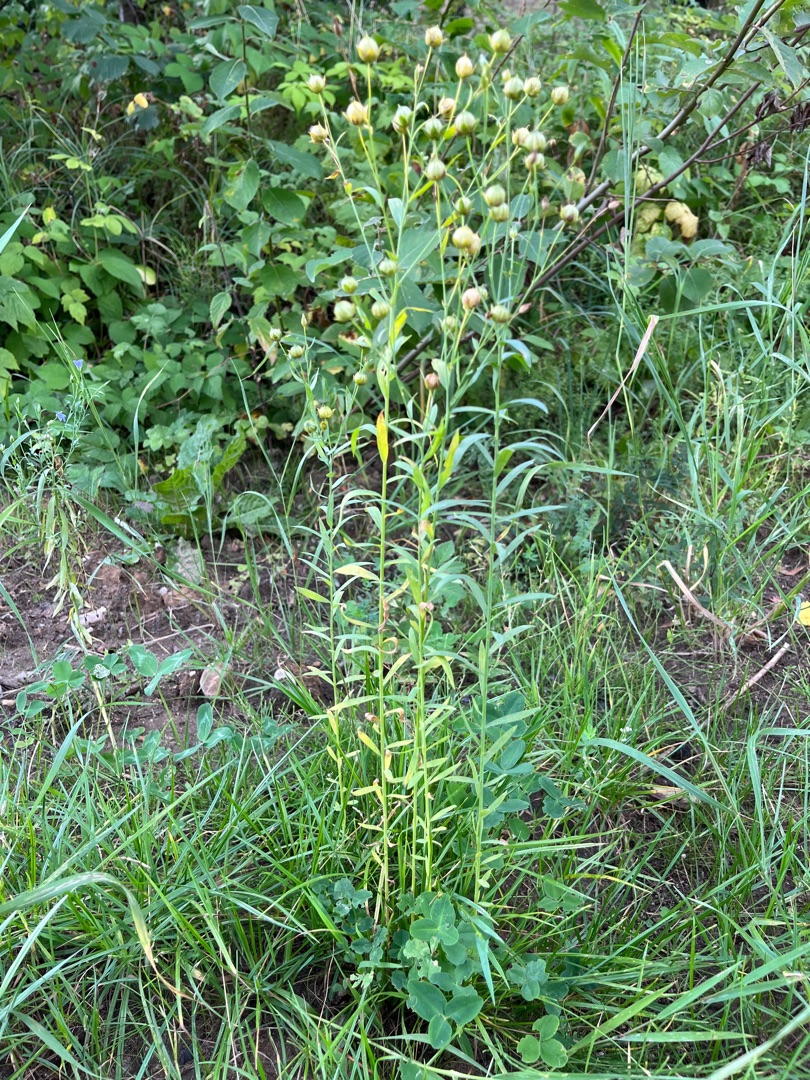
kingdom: Plantae
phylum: Tracheophyta
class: Magnoliopsida
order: Malpighiales
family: Linaceae
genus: Linum
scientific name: Linum usitatissimum
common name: Almindelig hør
